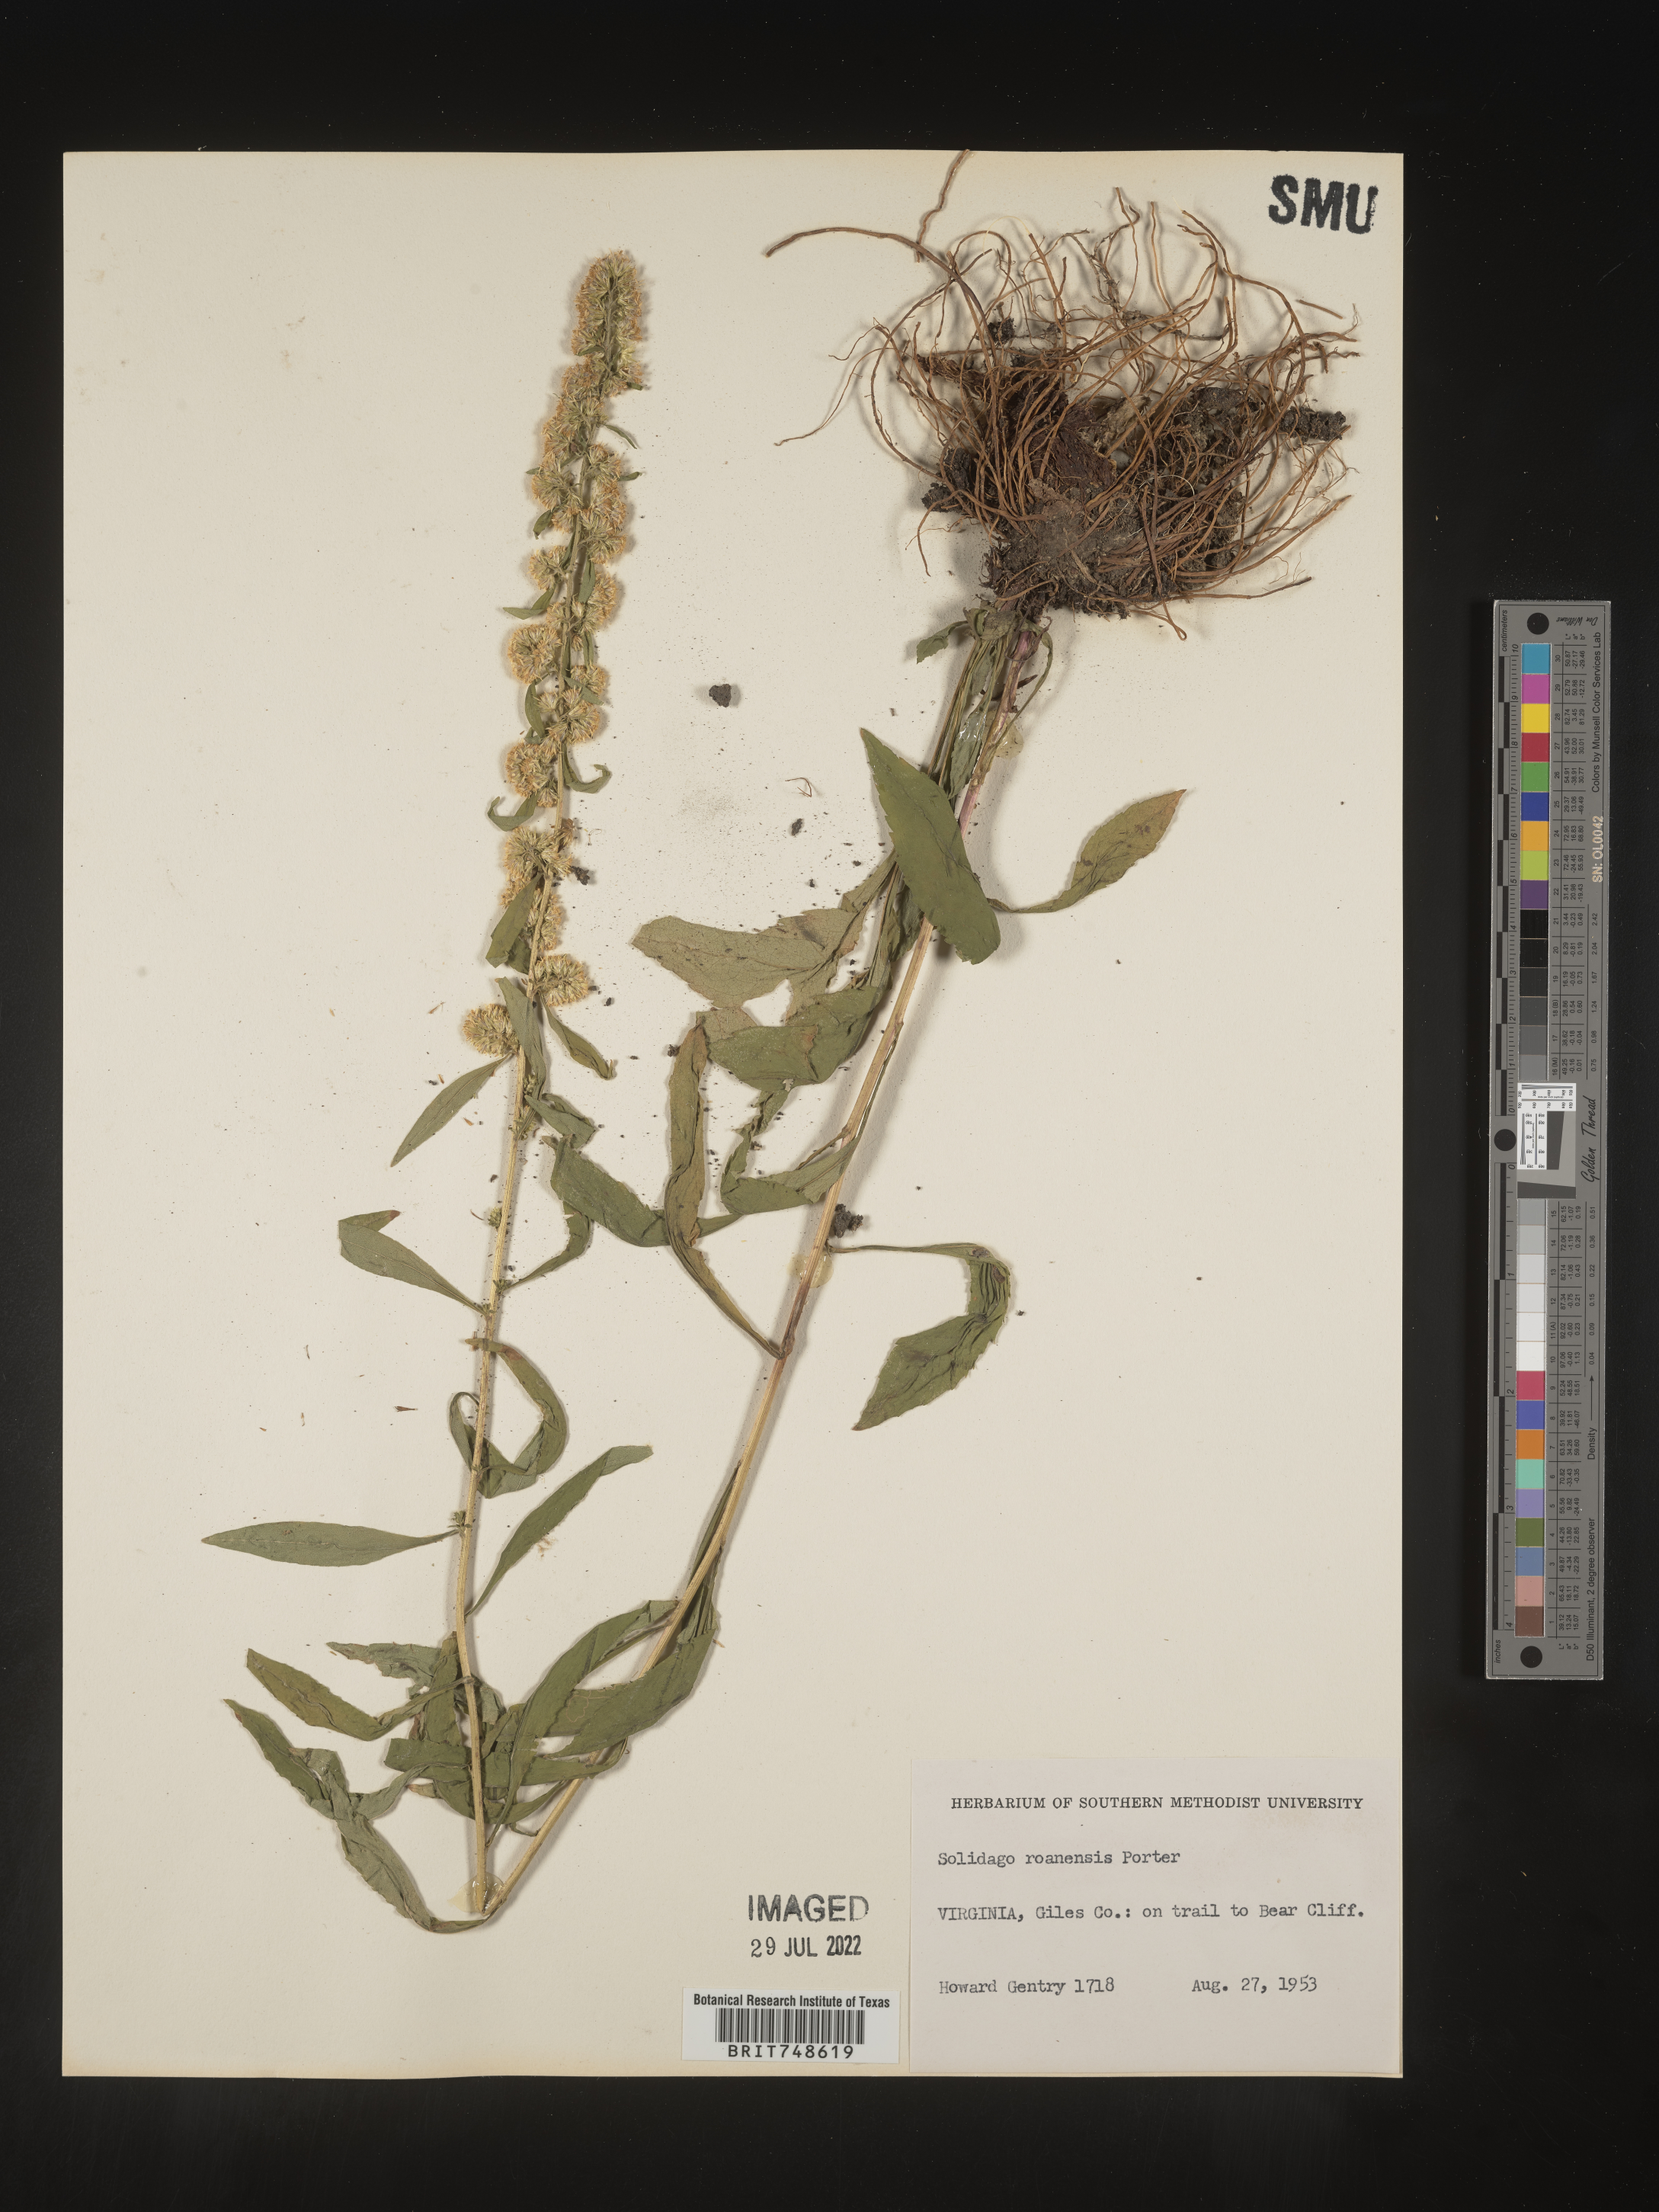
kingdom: Plantae
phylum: Tracheophyta
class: Magnoliopsida
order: Asterales
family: Asteraceae
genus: Solidago
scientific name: Solidago roanensis
